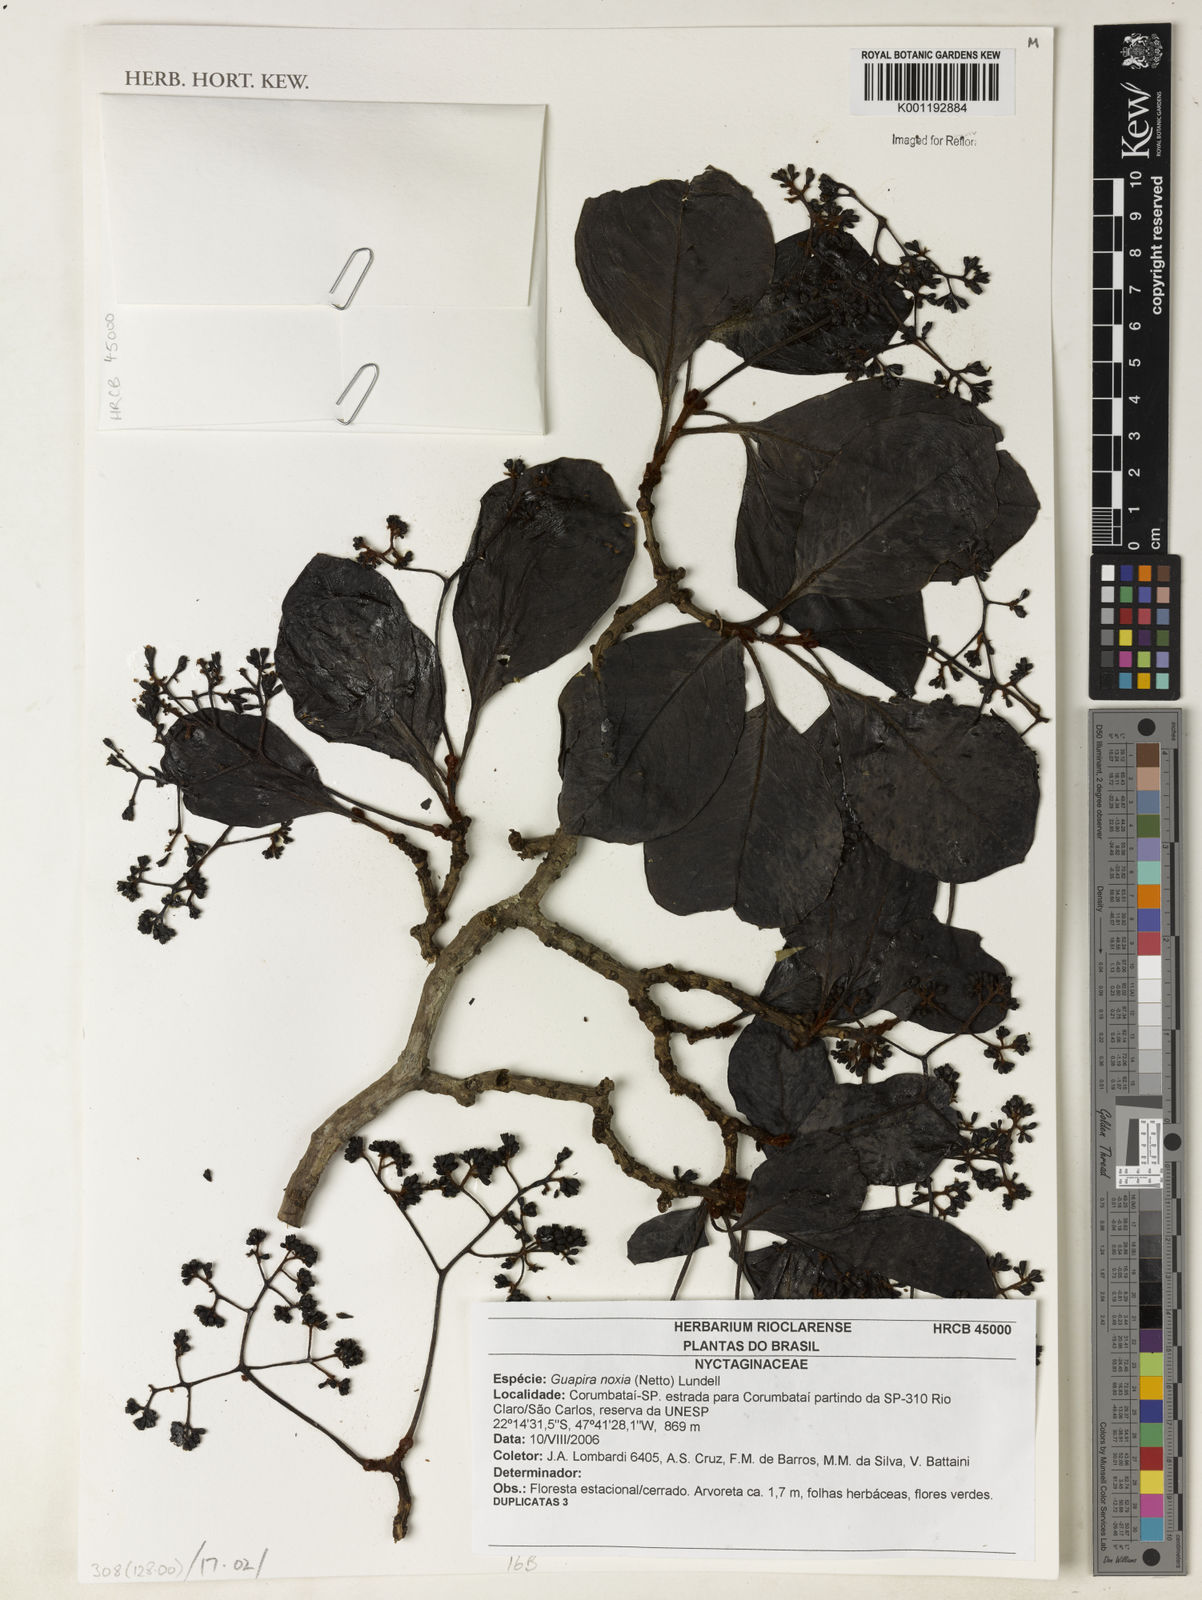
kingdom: Plantae
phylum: Tracheophyta
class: Magnoliopsida
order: Caryophyllales
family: Nyctaginaceae
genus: Guapira
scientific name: Guapira noxia
